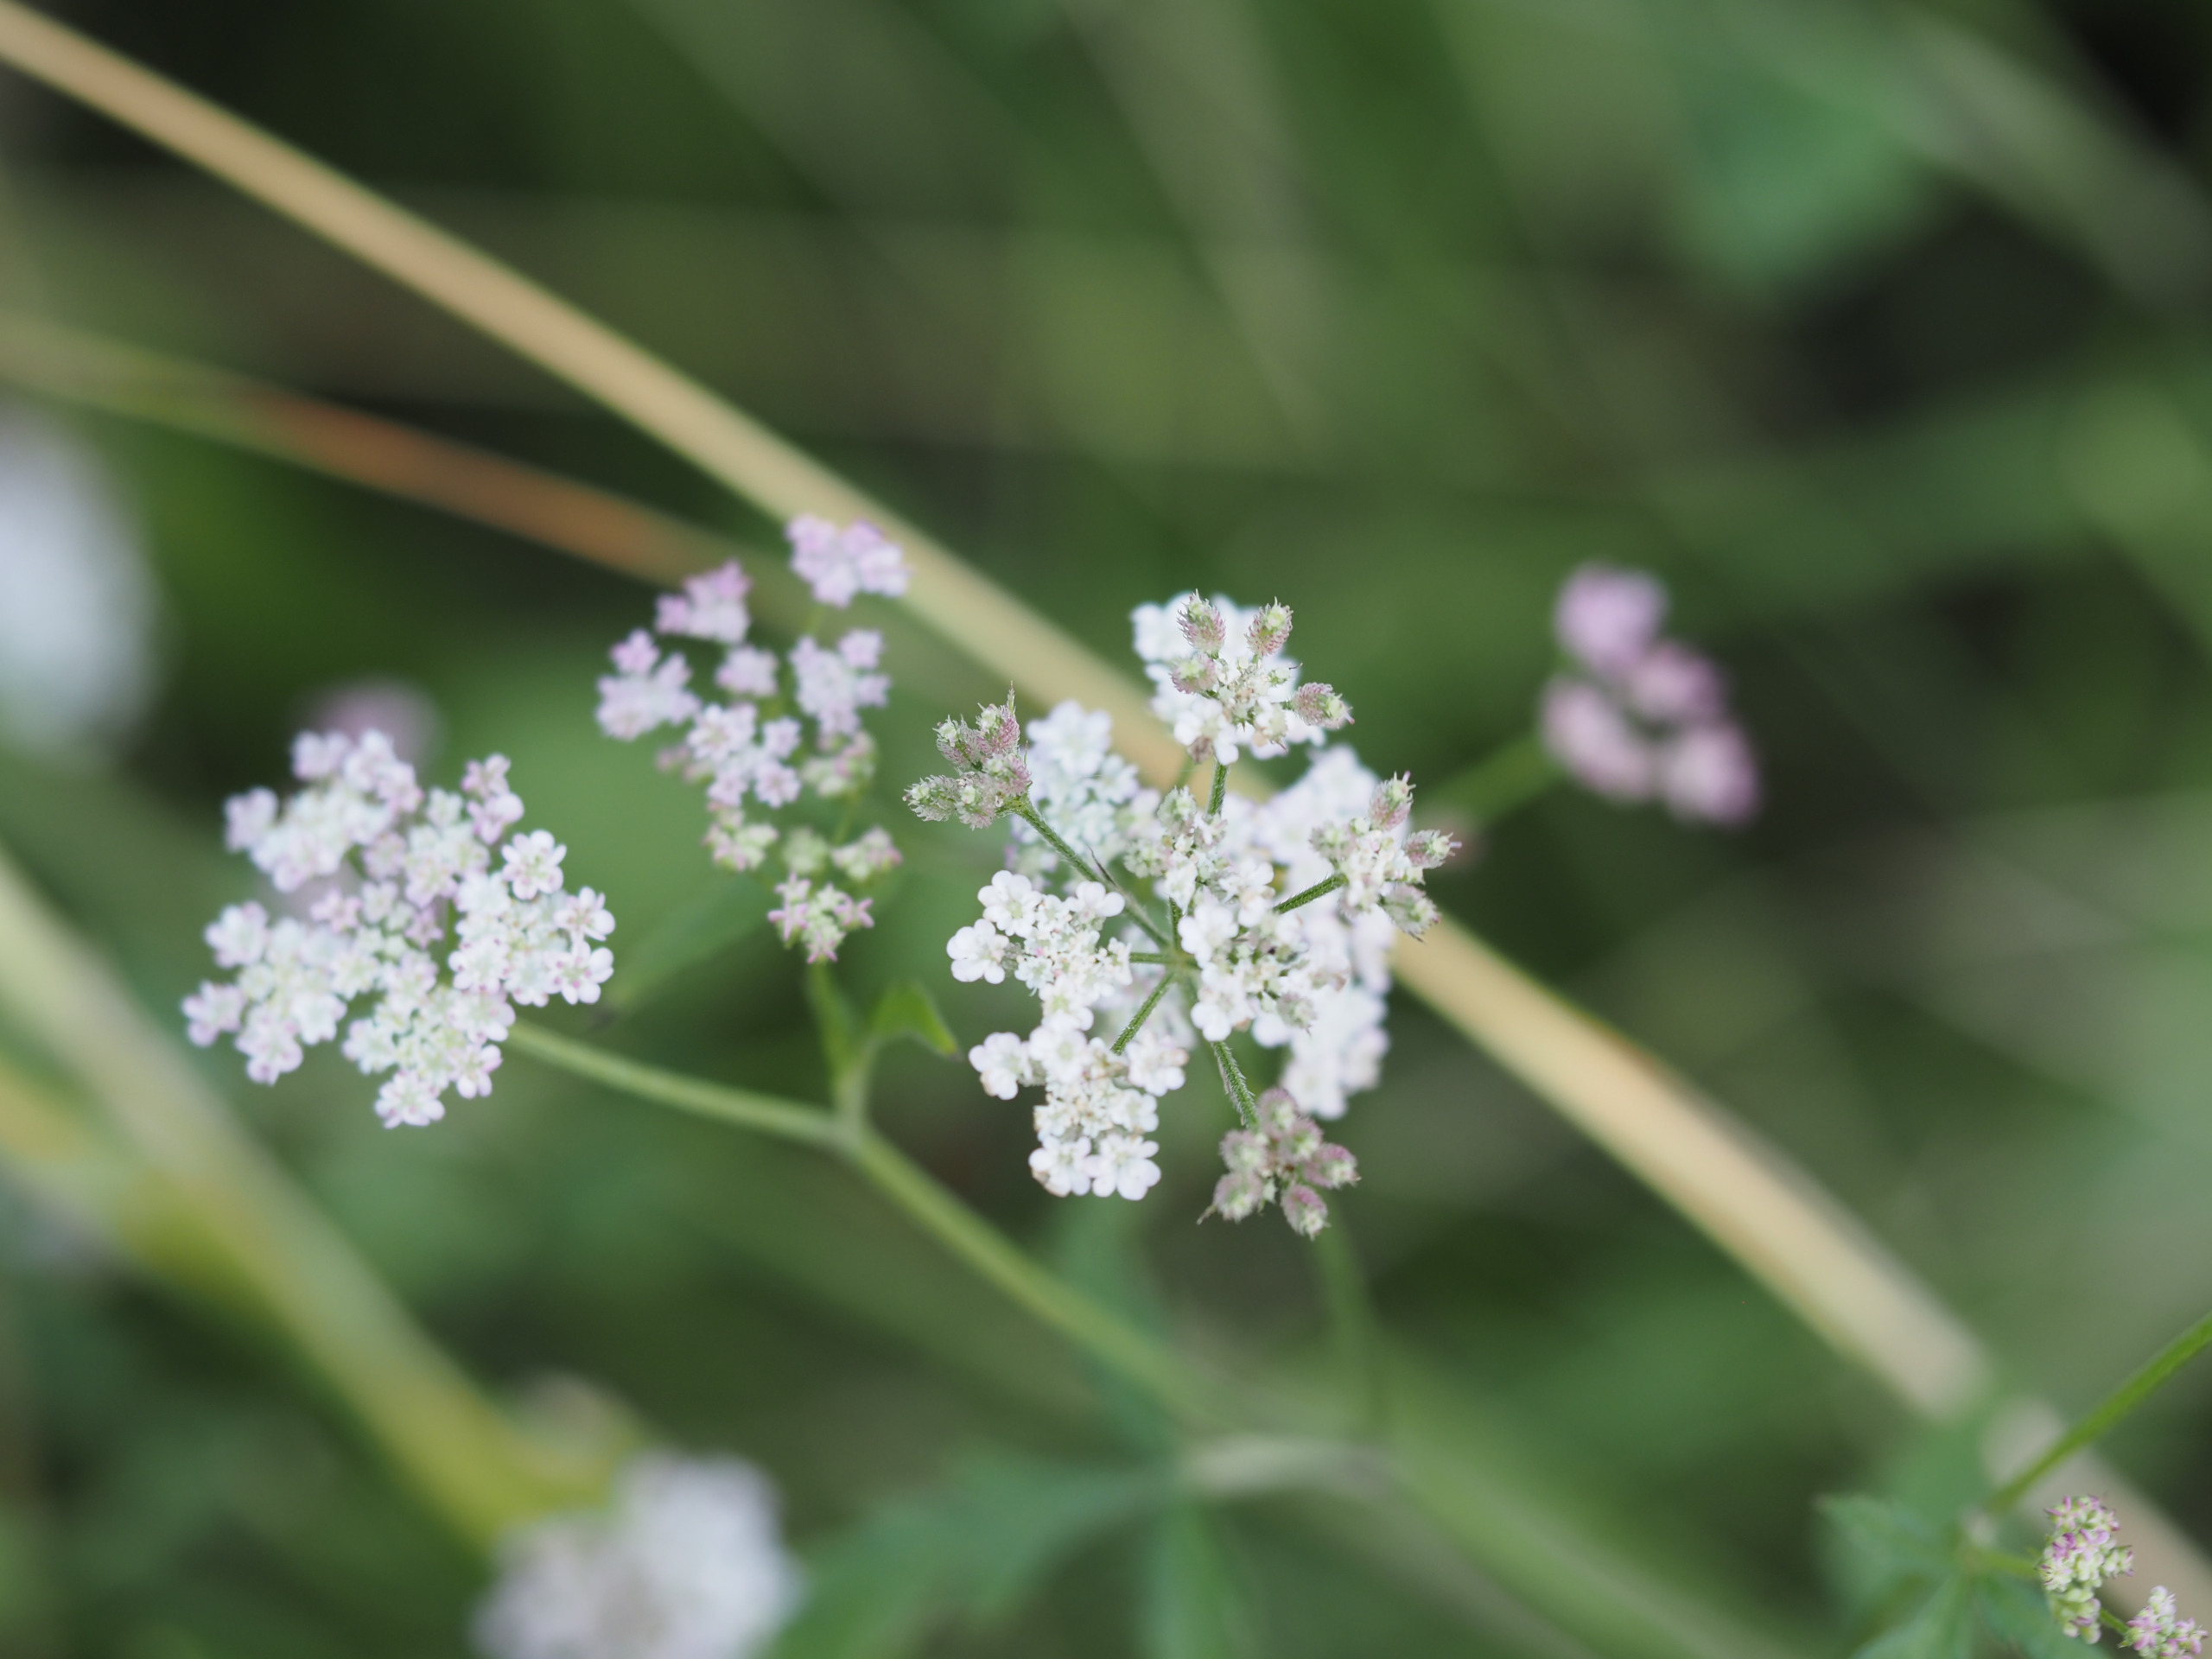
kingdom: Plantae
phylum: Tracheophyta
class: Magnoliopsida
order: Apiales
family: Apiaceae
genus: Torilis
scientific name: Torilis japonica
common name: Hvas randfrø
